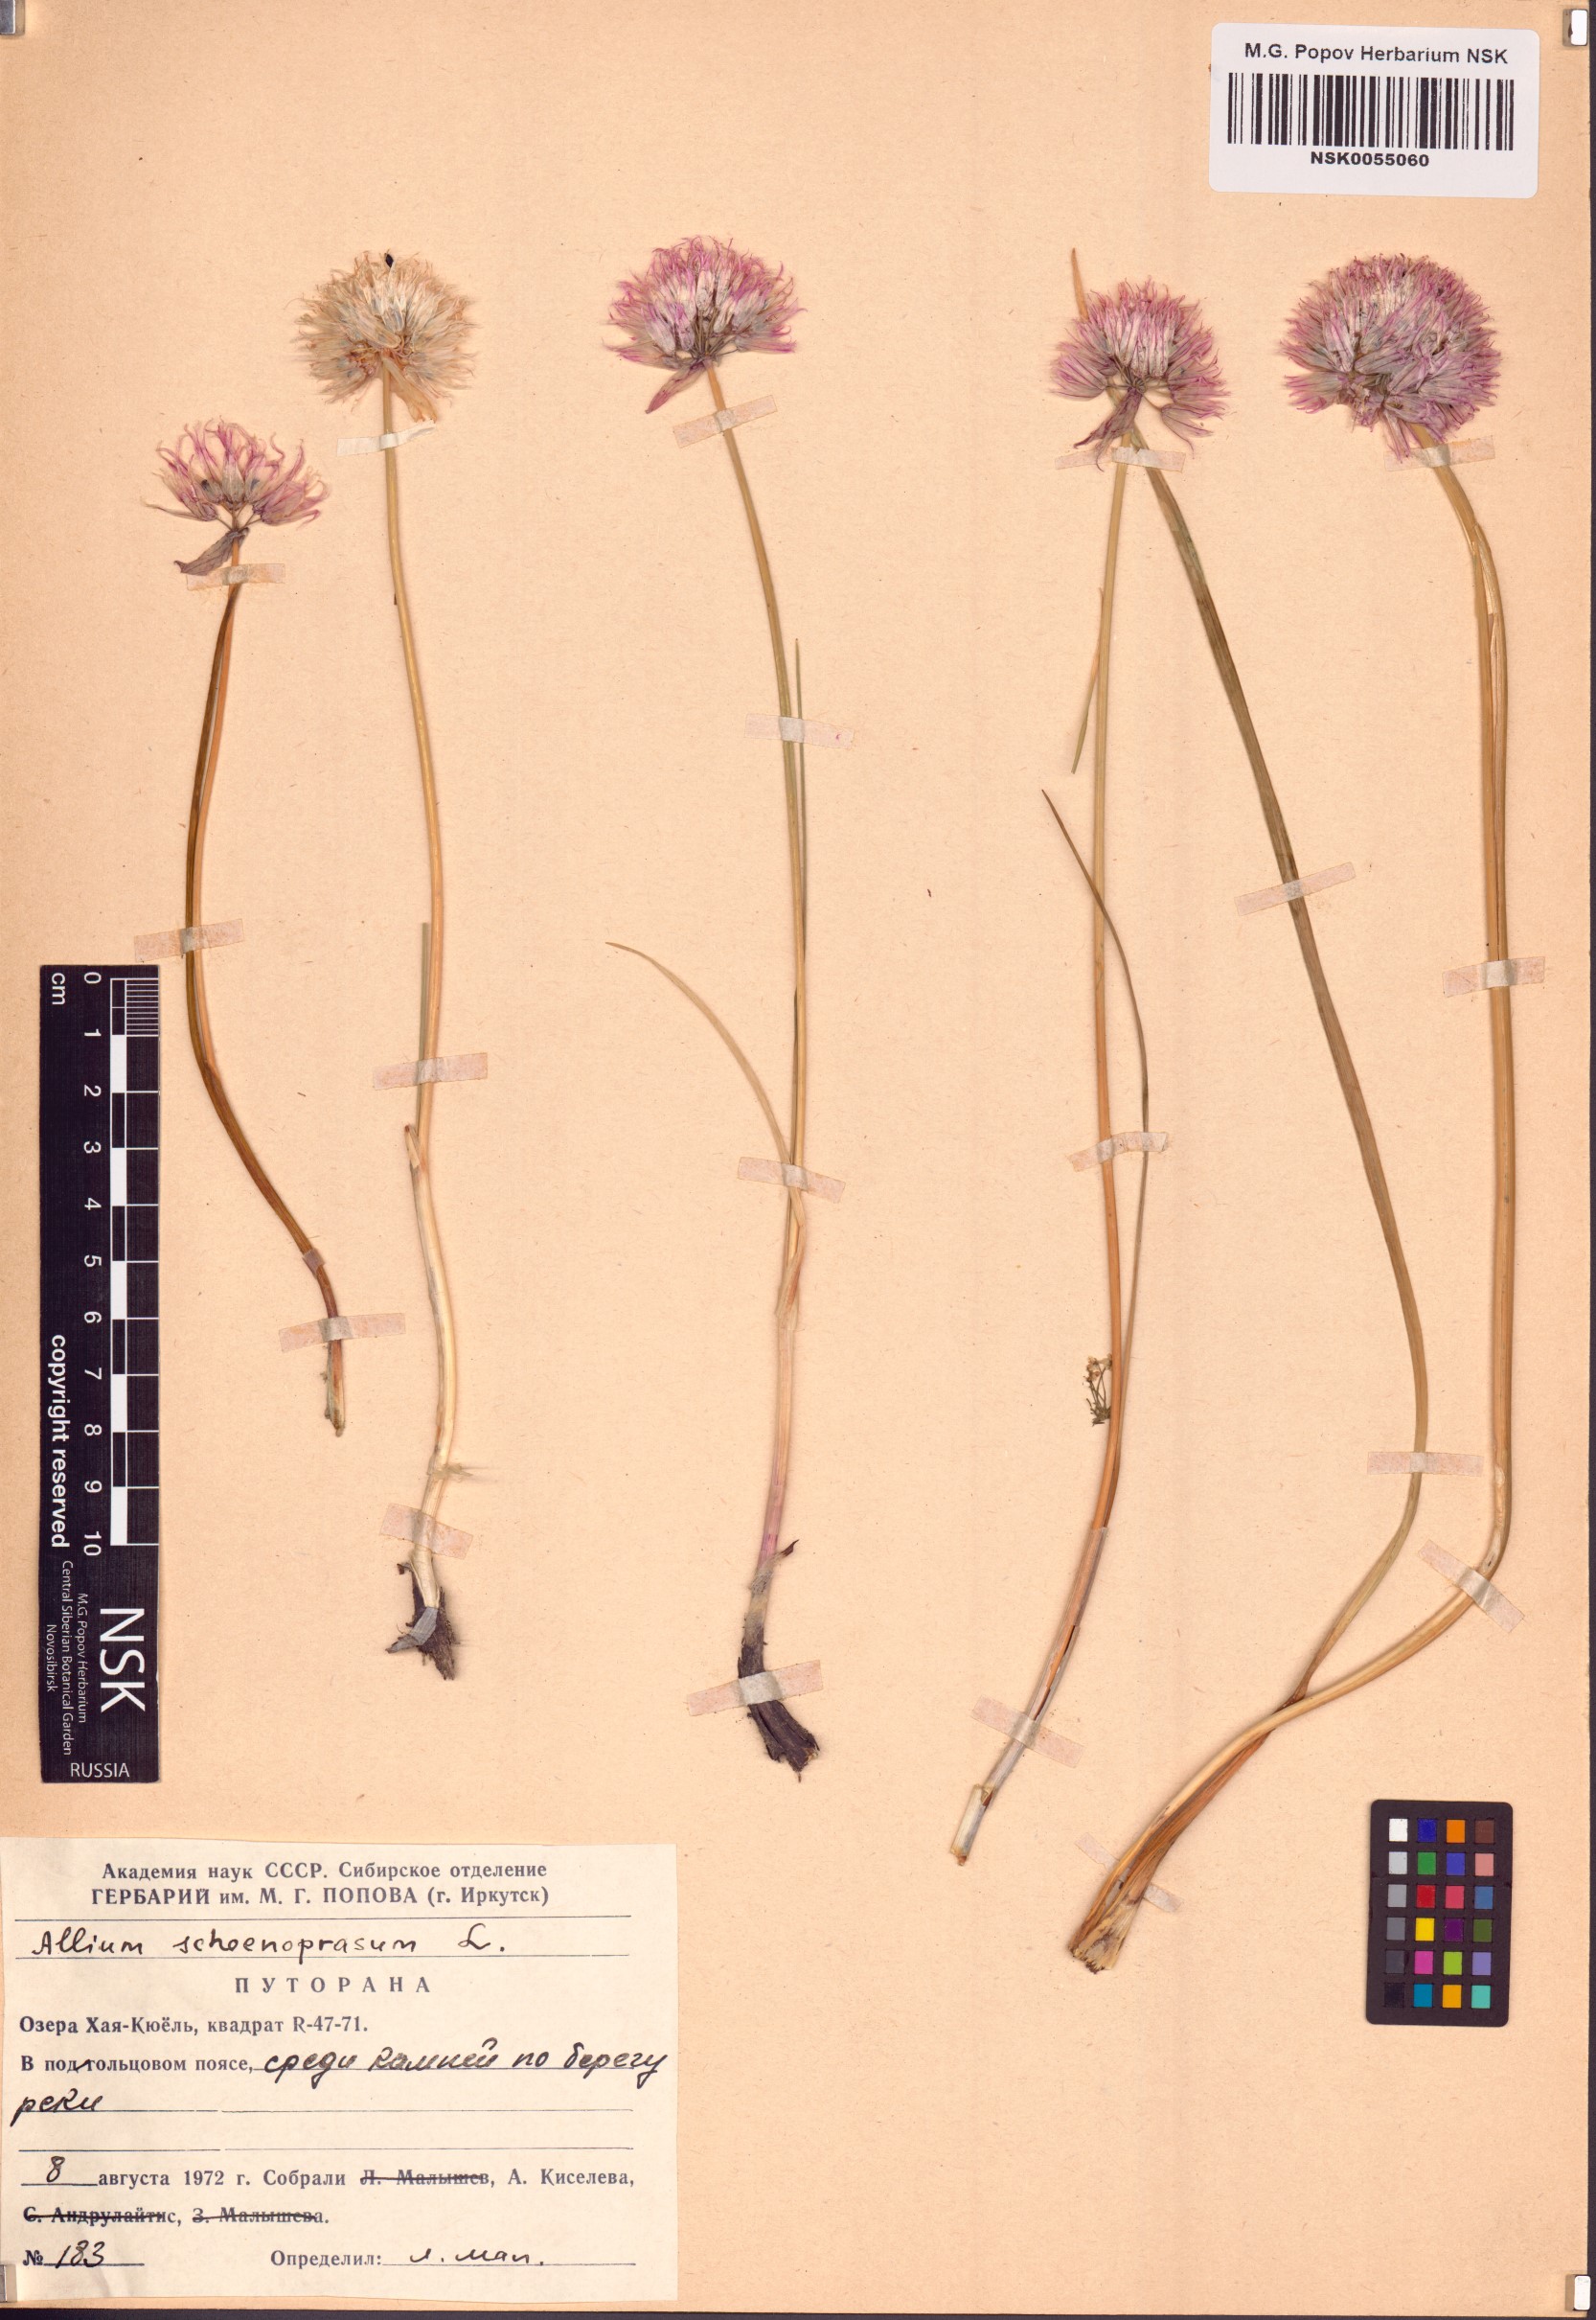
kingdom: Plantae
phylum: Tracheophyta
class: Liliopsida
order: Asparagales
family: Amaryllidaceae
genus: Allium
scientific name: Allium schoenoprasum
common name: Chives
